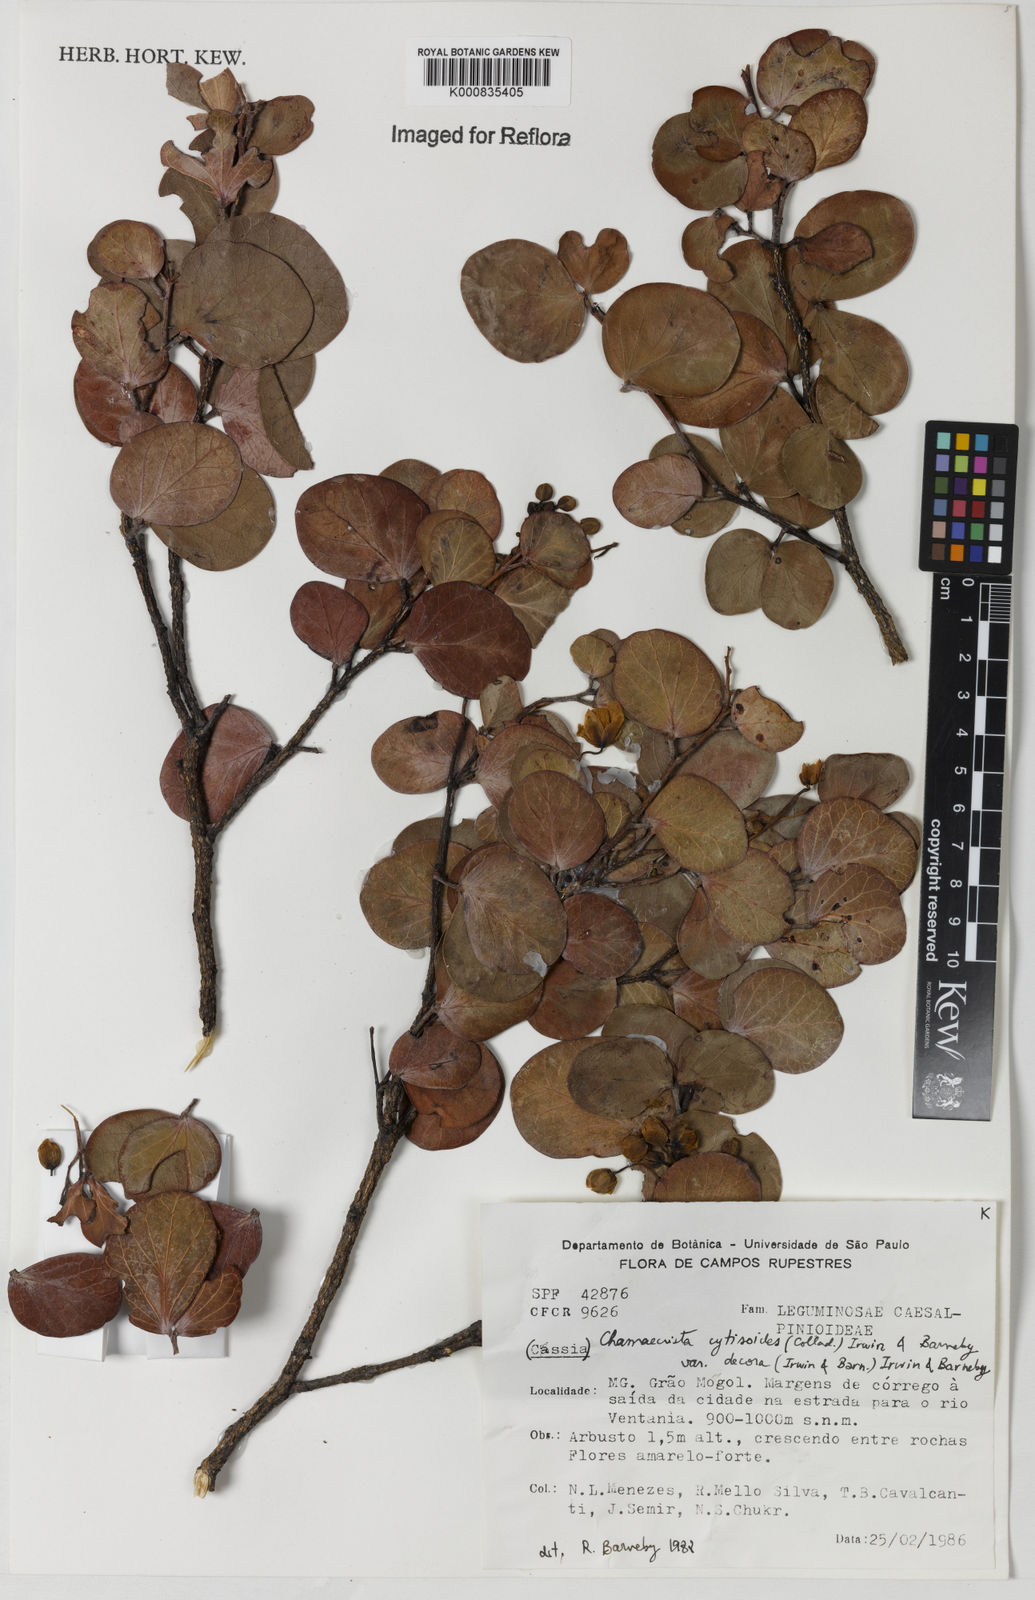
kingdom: Plantae
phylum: Tracheophyta
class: Magnoliopsida
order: Fabales
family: Fabaceae
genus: Chamaecrista
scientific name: Chamaecrista decora
